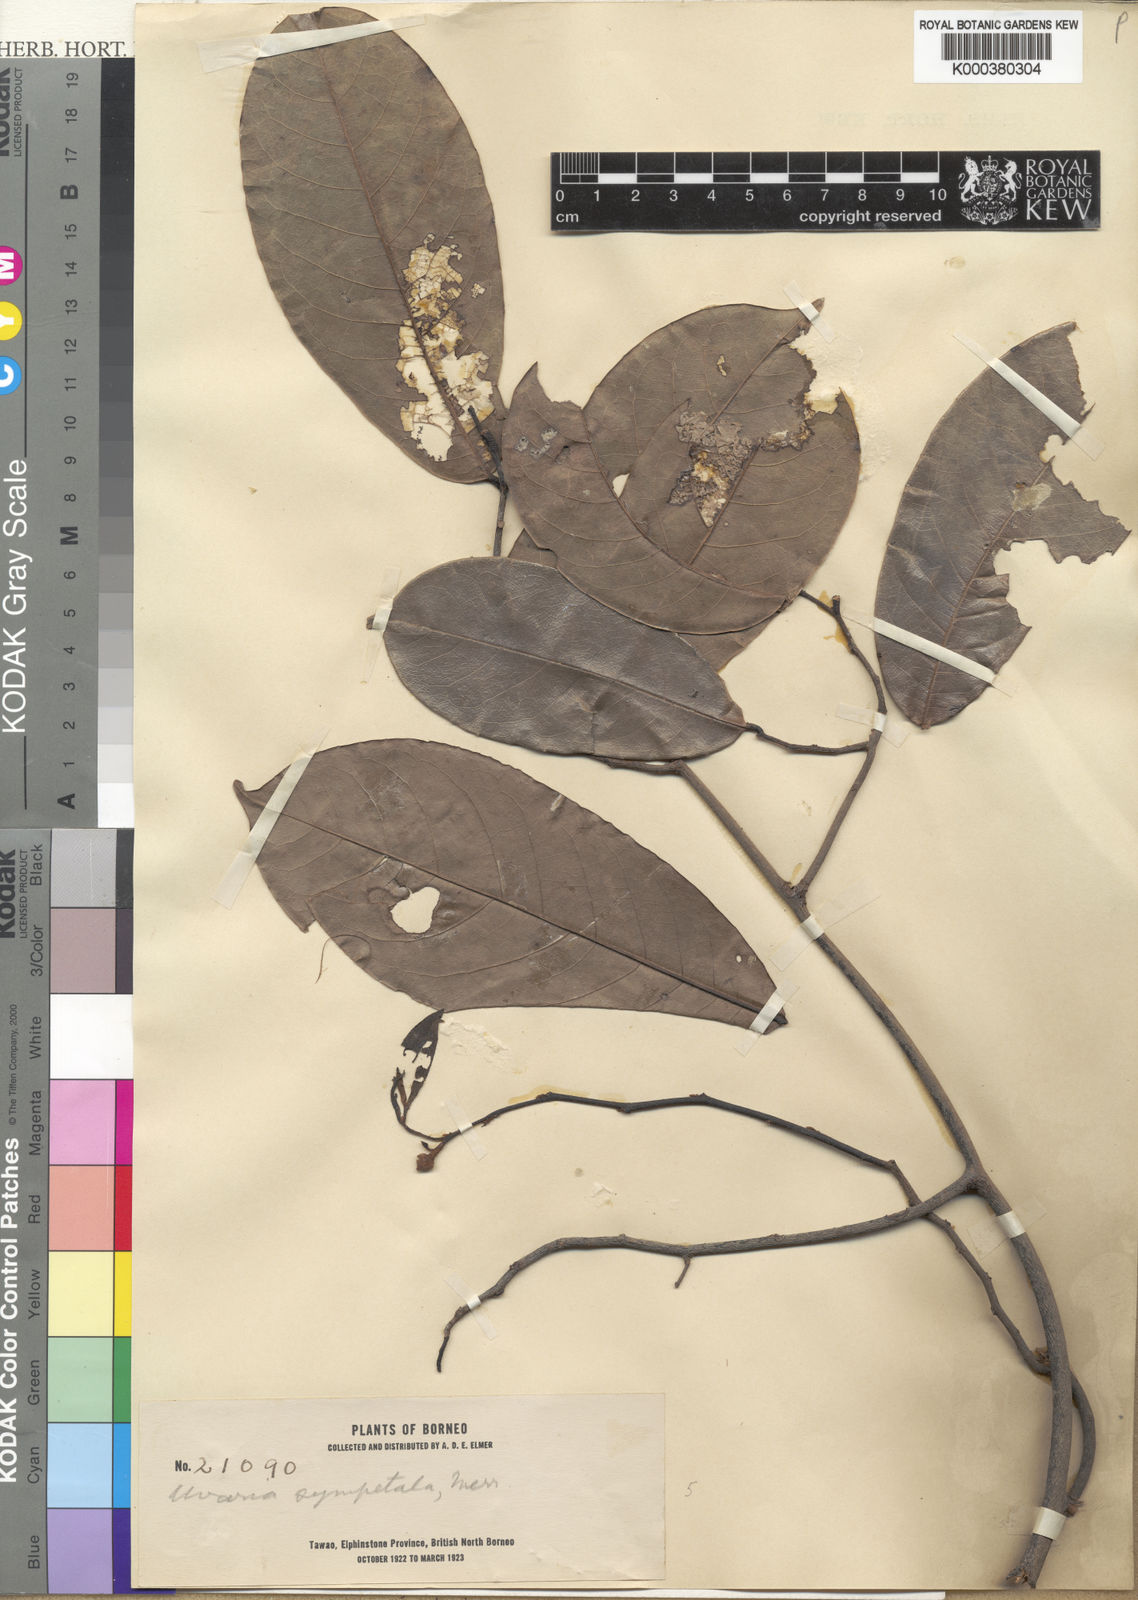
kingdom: Plantae
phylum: Tracheophyta
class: Magnoliopsida
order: Magnoliales
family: Annonaceae
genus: Uvaria
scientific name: Uvaria concava
